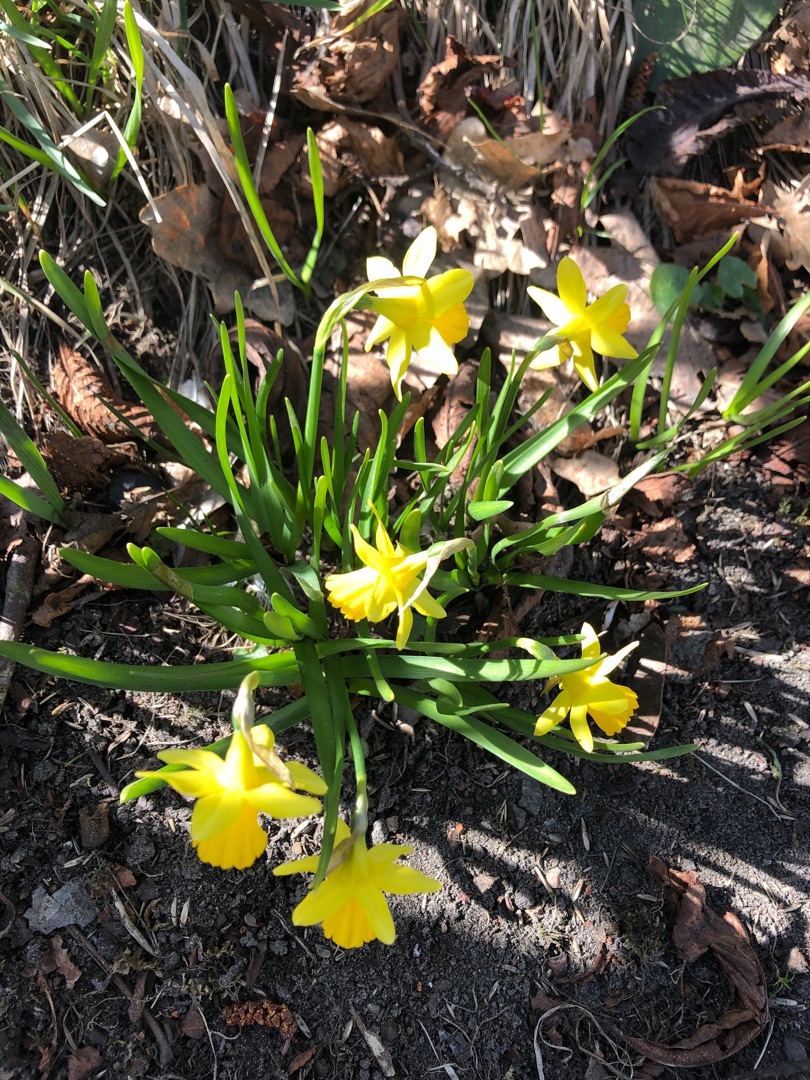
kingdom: Plantae
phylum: Tracheophyta
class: Liliopsida
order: Asparagales
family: Amaryllidaceae
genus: Narcissus
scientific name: Narcissus cyclazetta
